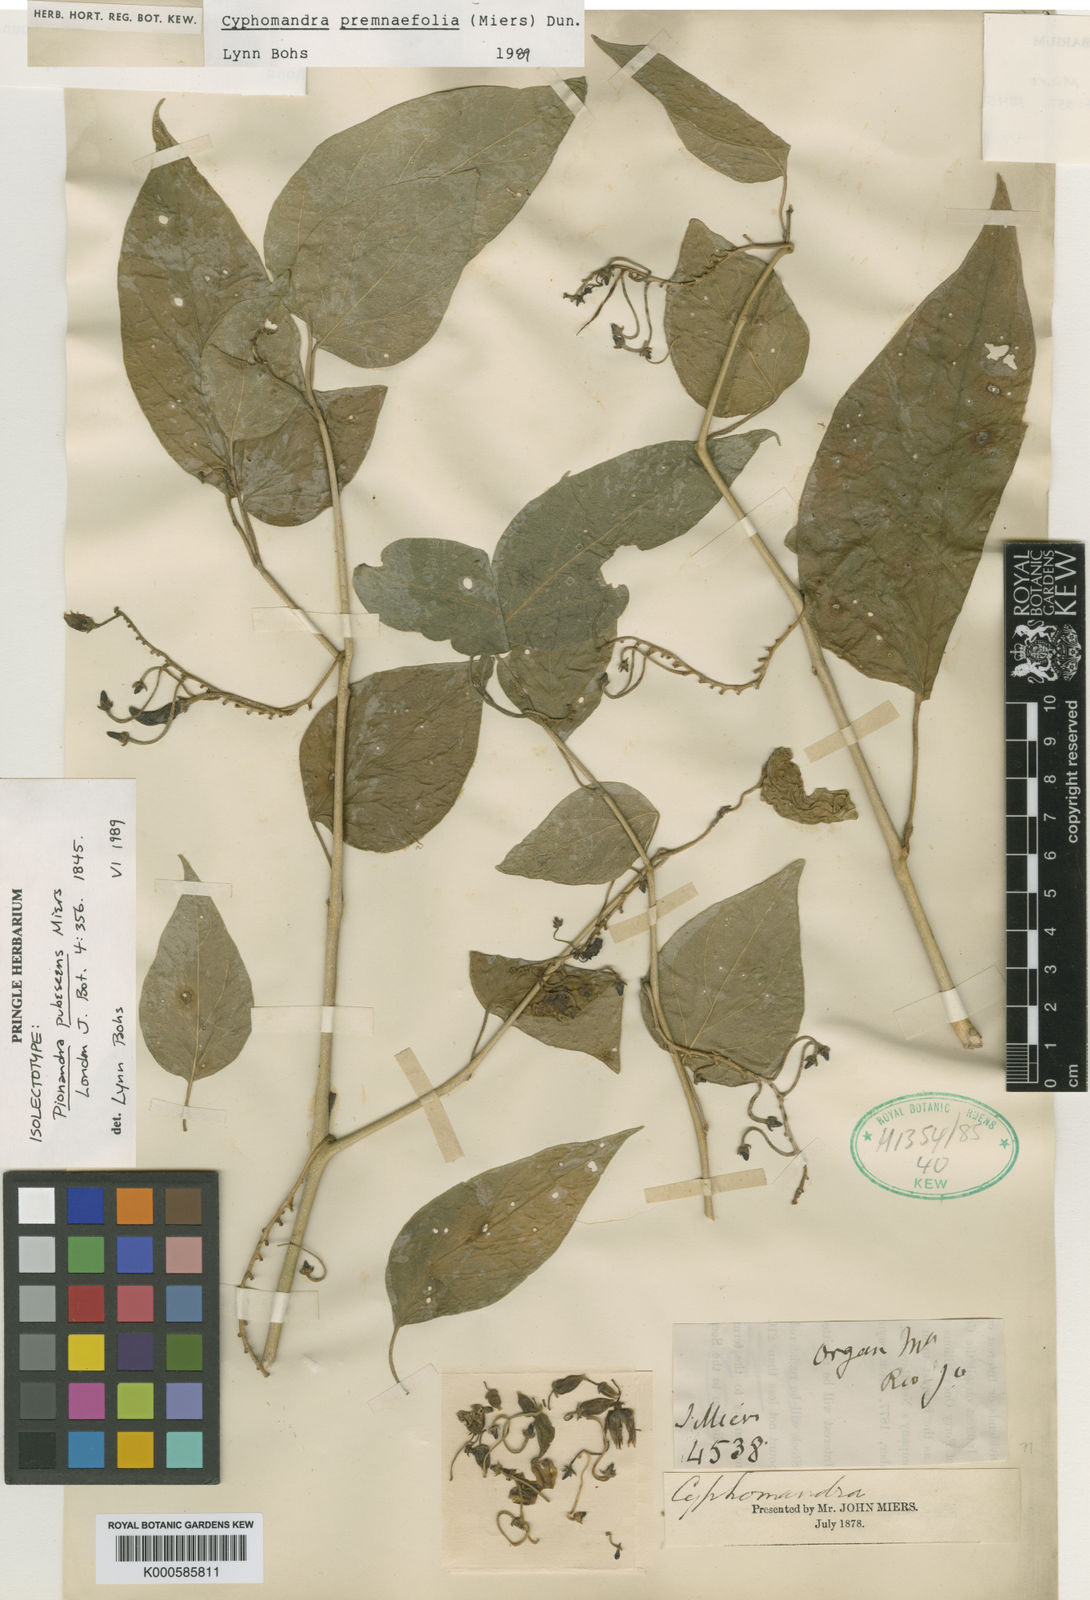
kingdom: Plantae
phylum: Tracheophyta
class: Magnoliopsida
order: Solanales
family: Solanaceae
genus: Solanum
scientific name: Solanum premnifolium
